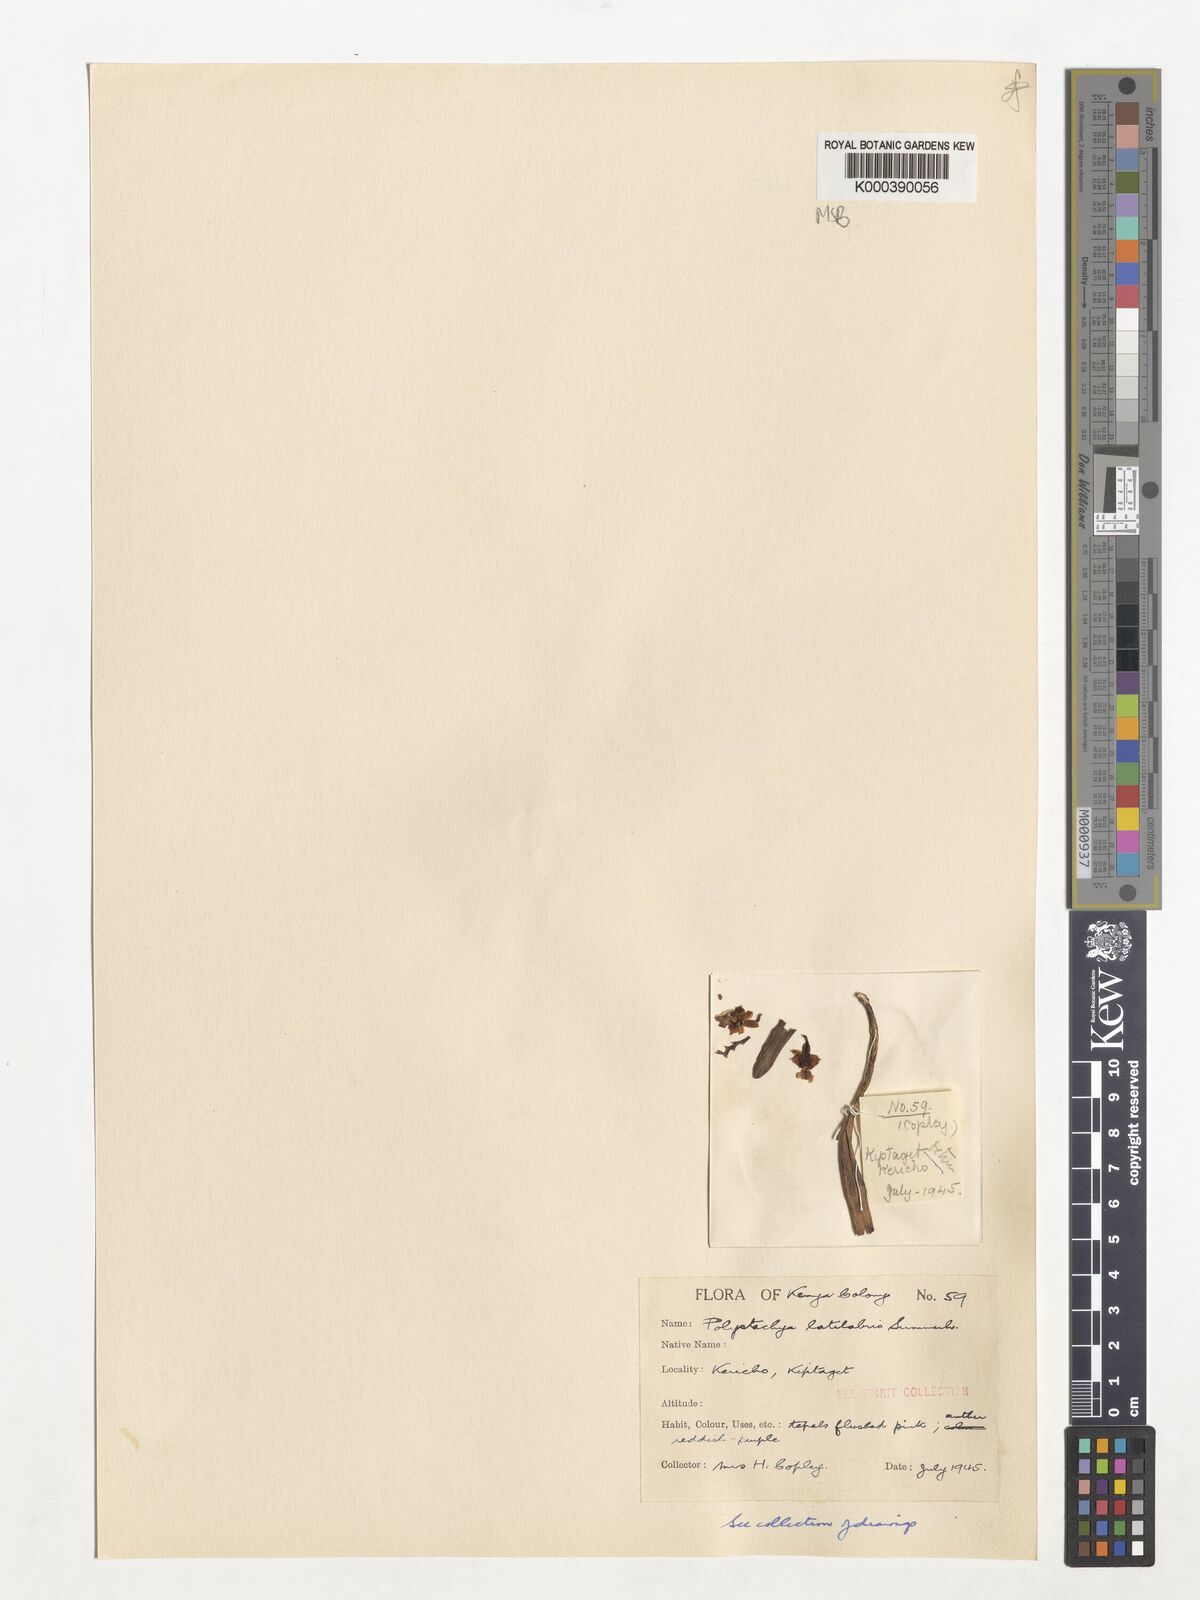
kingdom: Plantae
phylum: Tracheophyta
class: Liliopsida
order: Asparagales
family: Orchidaceae
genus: Polystachya
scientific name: Polystachya caespitifica
